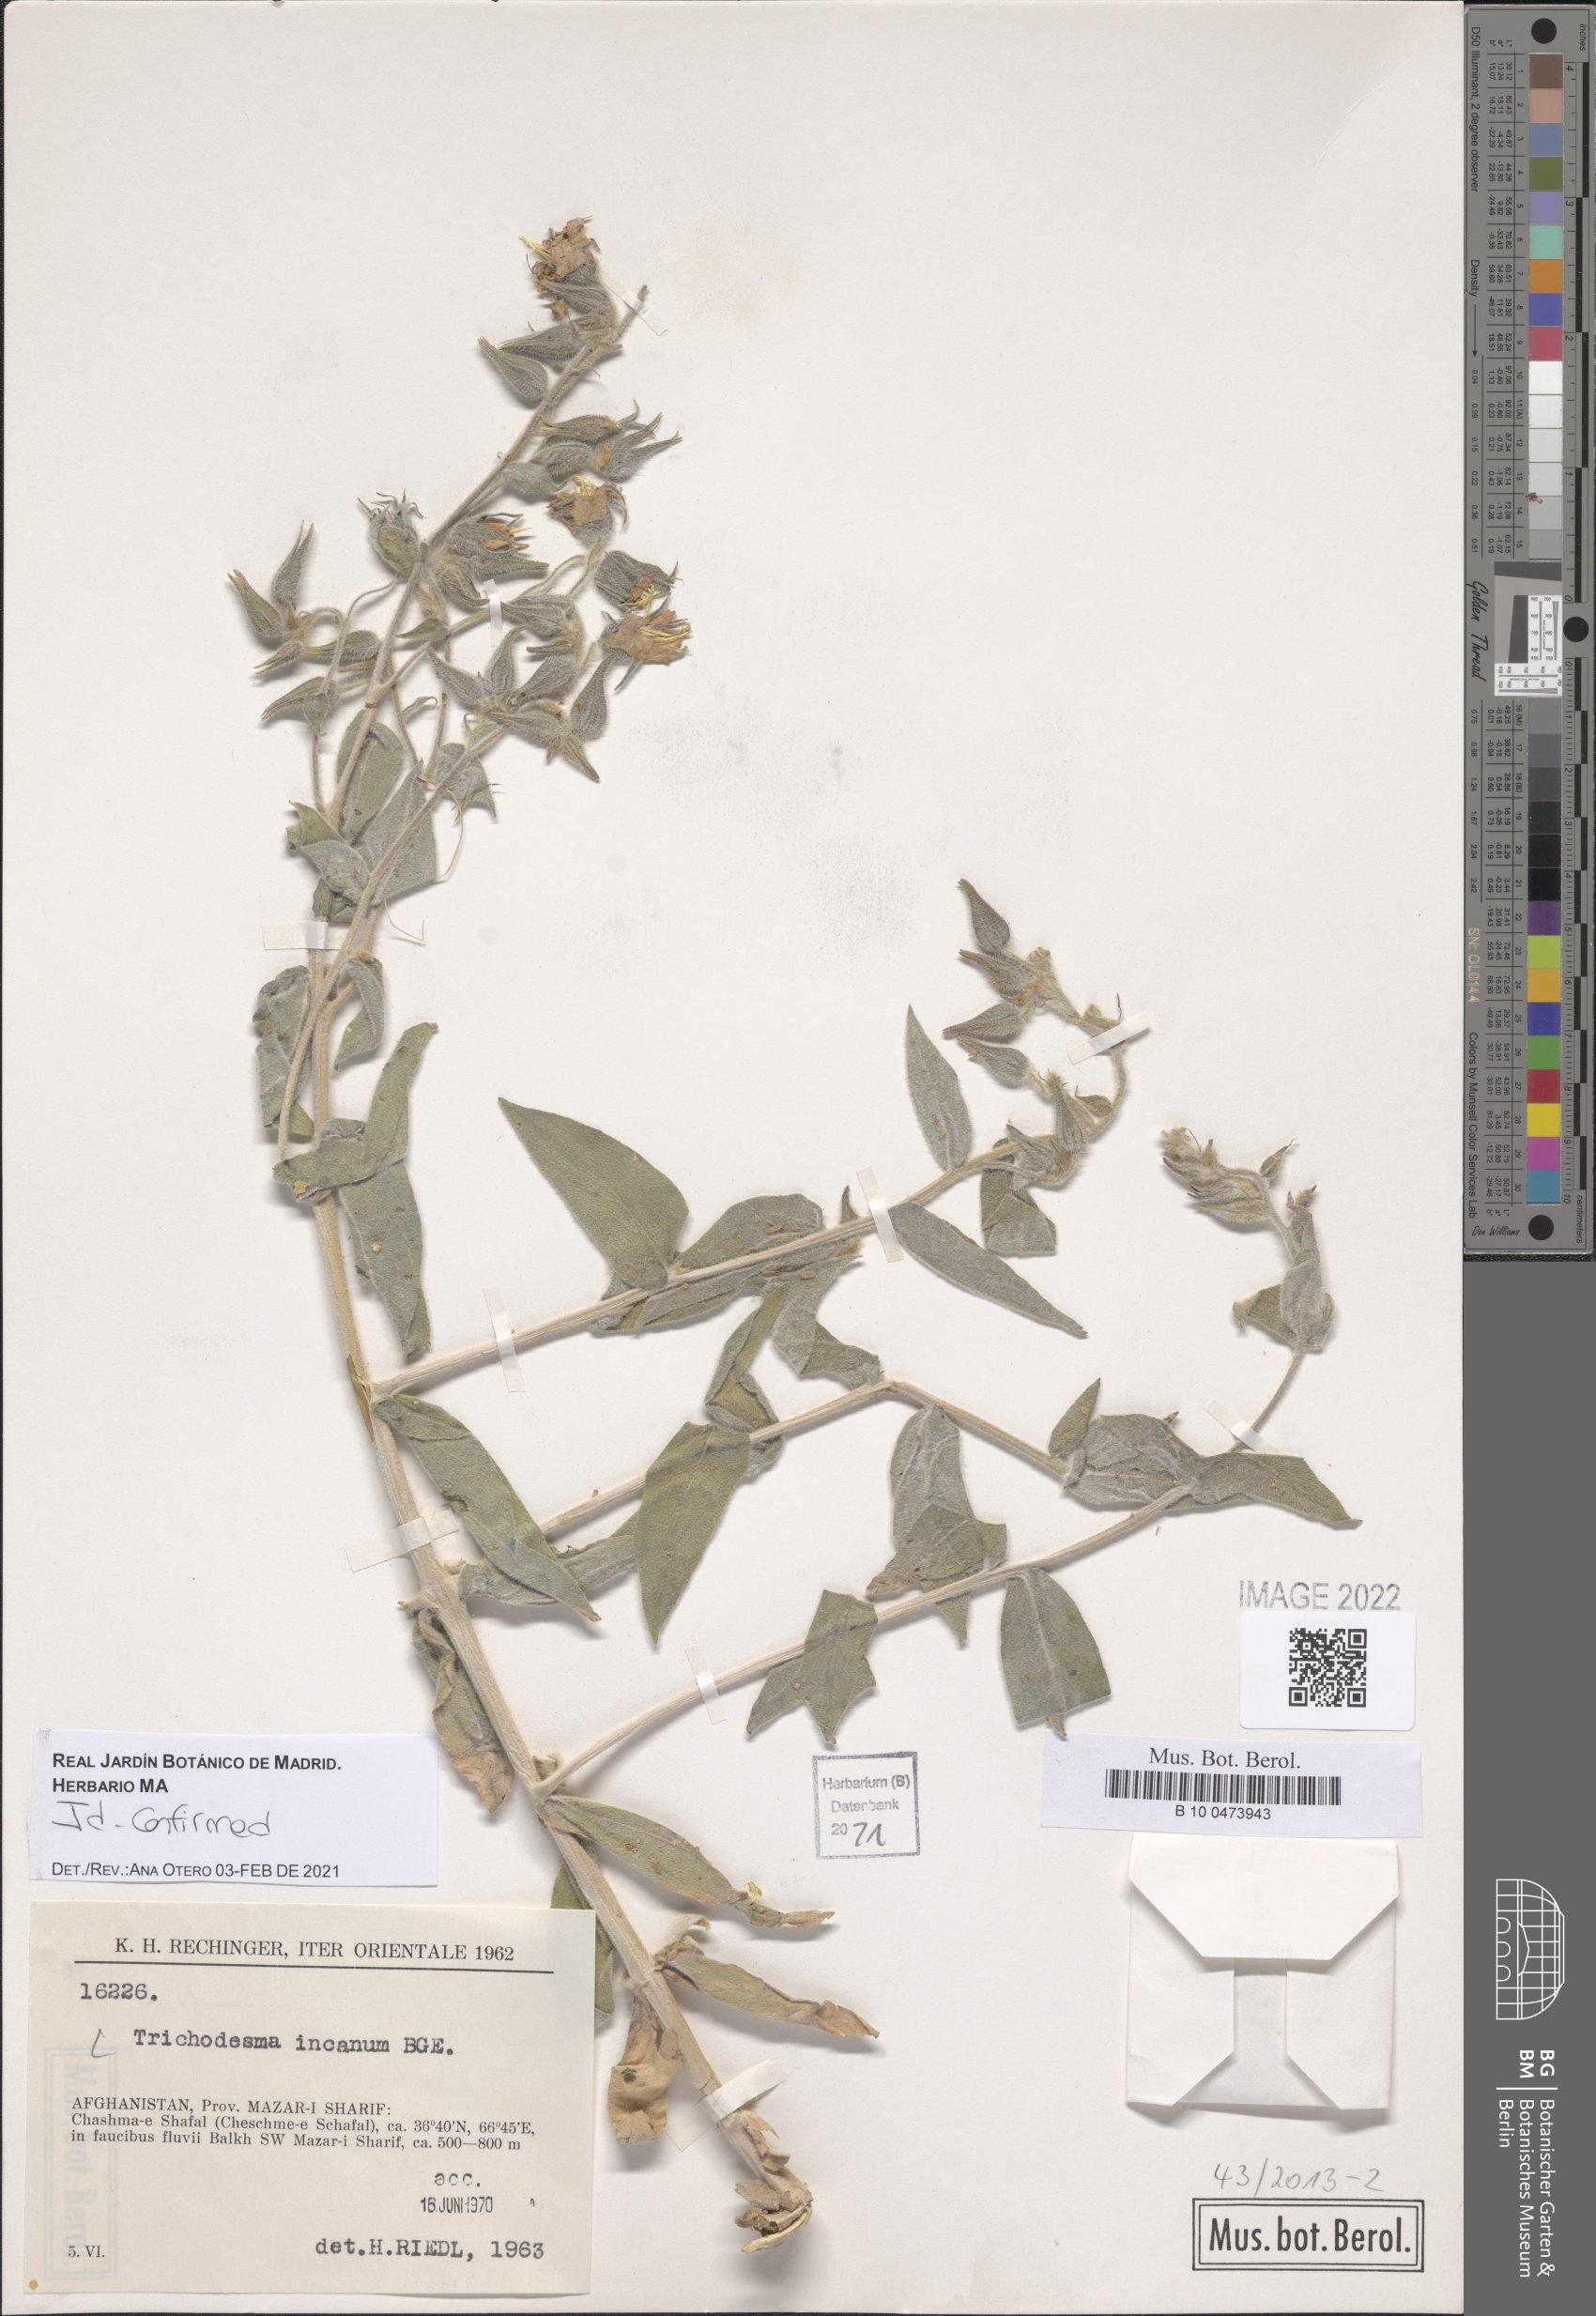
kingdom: Plantae
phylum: Tracheophyta
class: Magnoliopsida
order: Boraginales
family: Boraginaceae
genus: Trichodesma
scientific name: Trichodesma incanum
